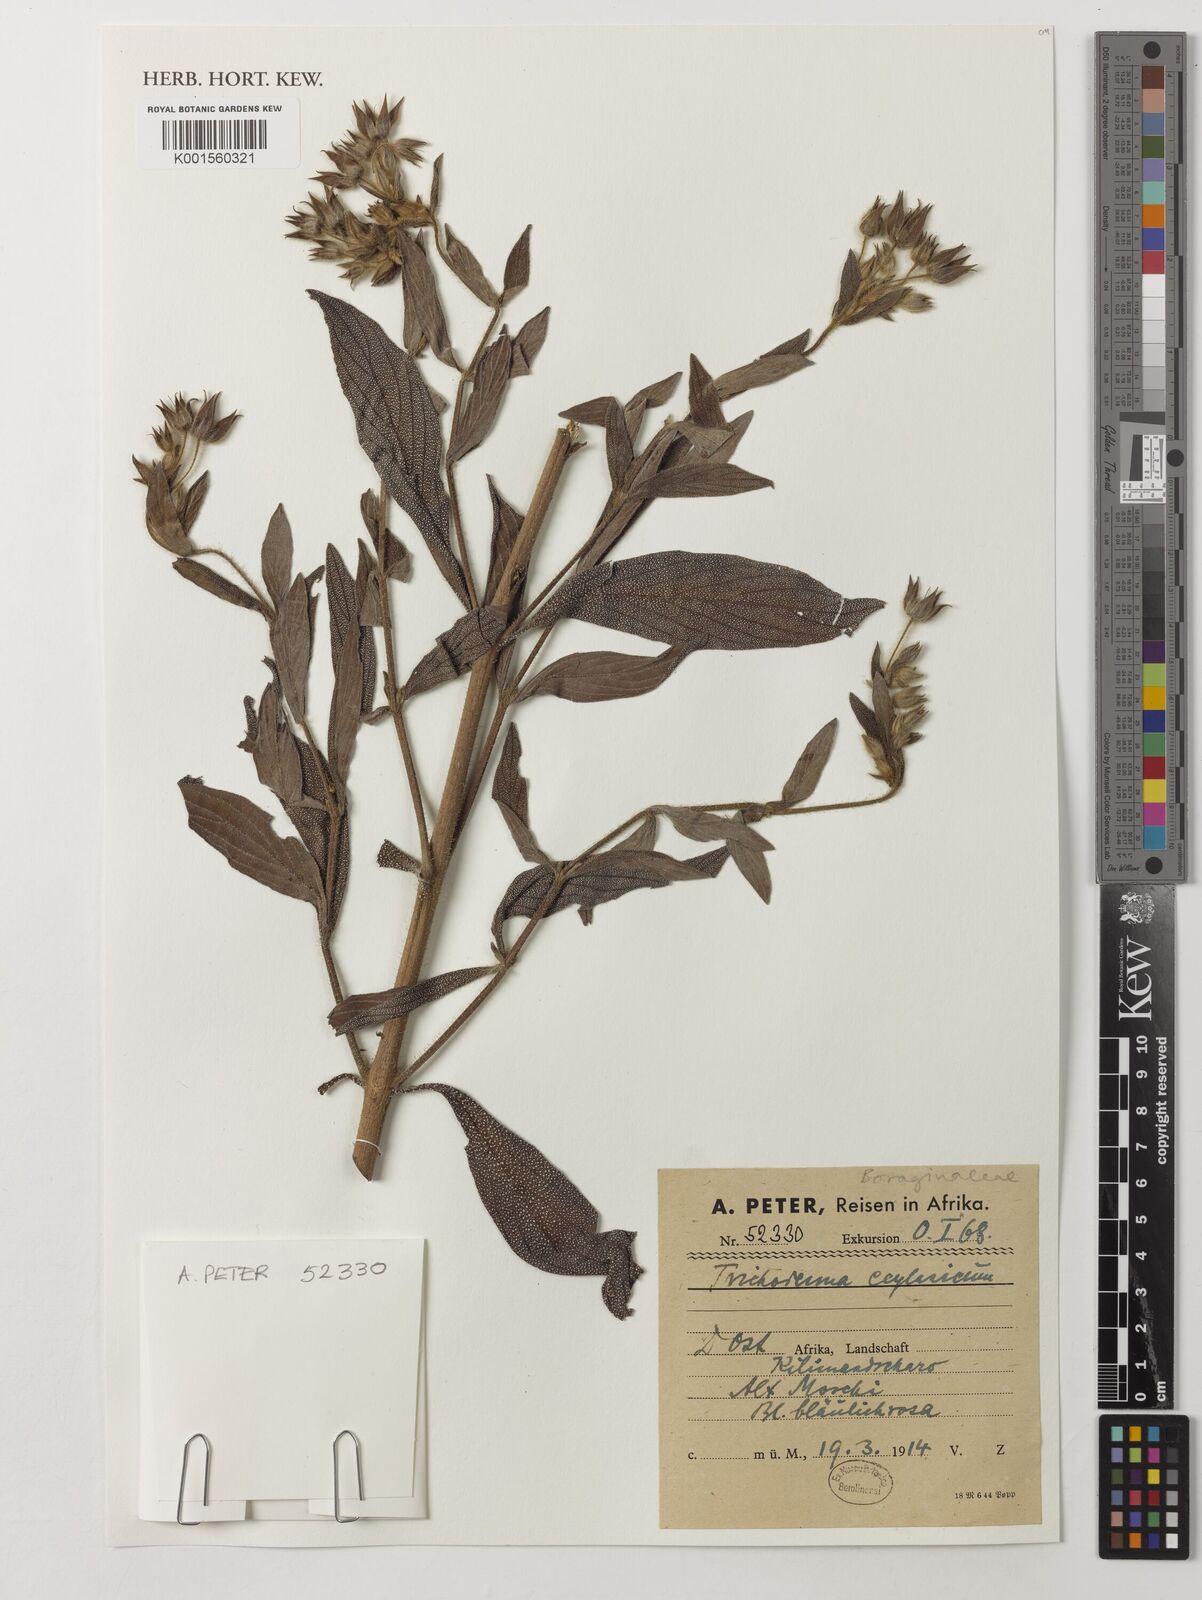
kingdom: Plantae
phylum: Tracheophyta
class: Magnoliopsida
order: Boraginales
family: Boraginaceae
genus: Trichodesma
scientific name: Trichodesma zeylanicum
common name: Camelbush
